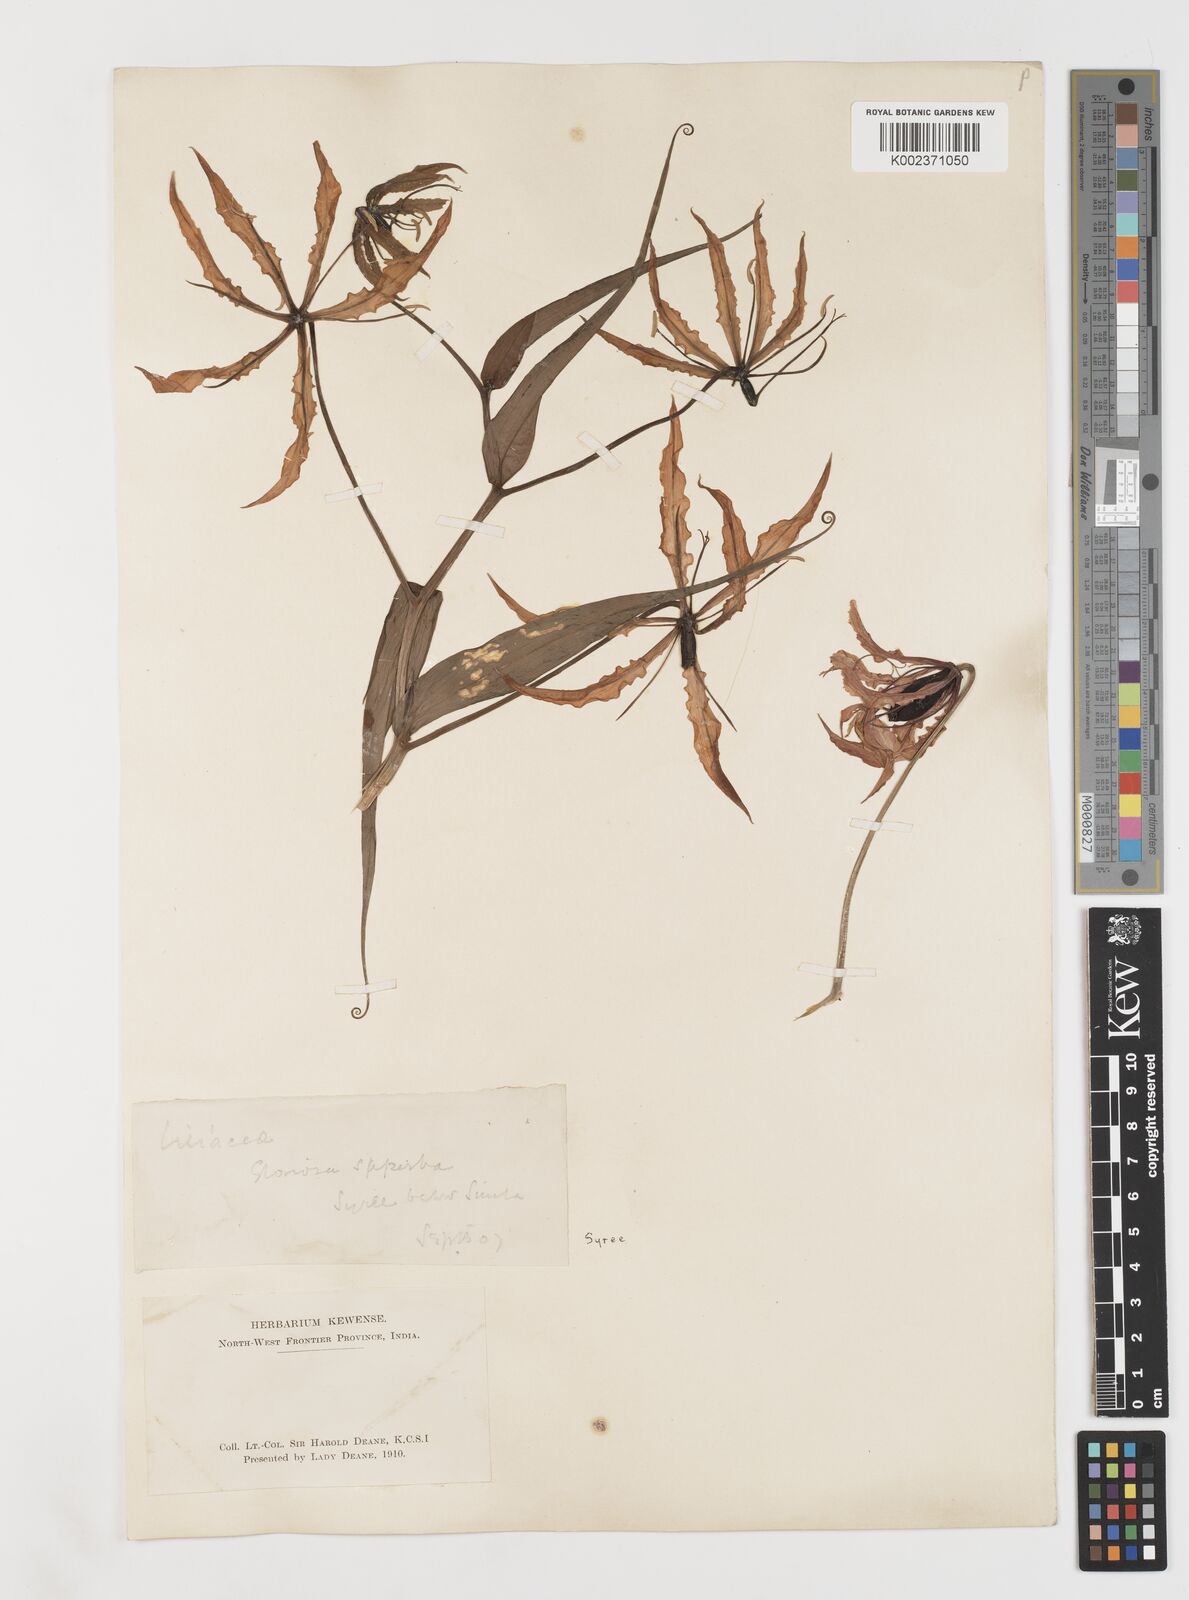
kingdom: Plantae
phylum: Tracheophyta
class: Liliopsida
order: Liliales
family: Colchicaceae
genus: Gloriosa
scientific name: Gloriosa superba
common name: Flame lily
